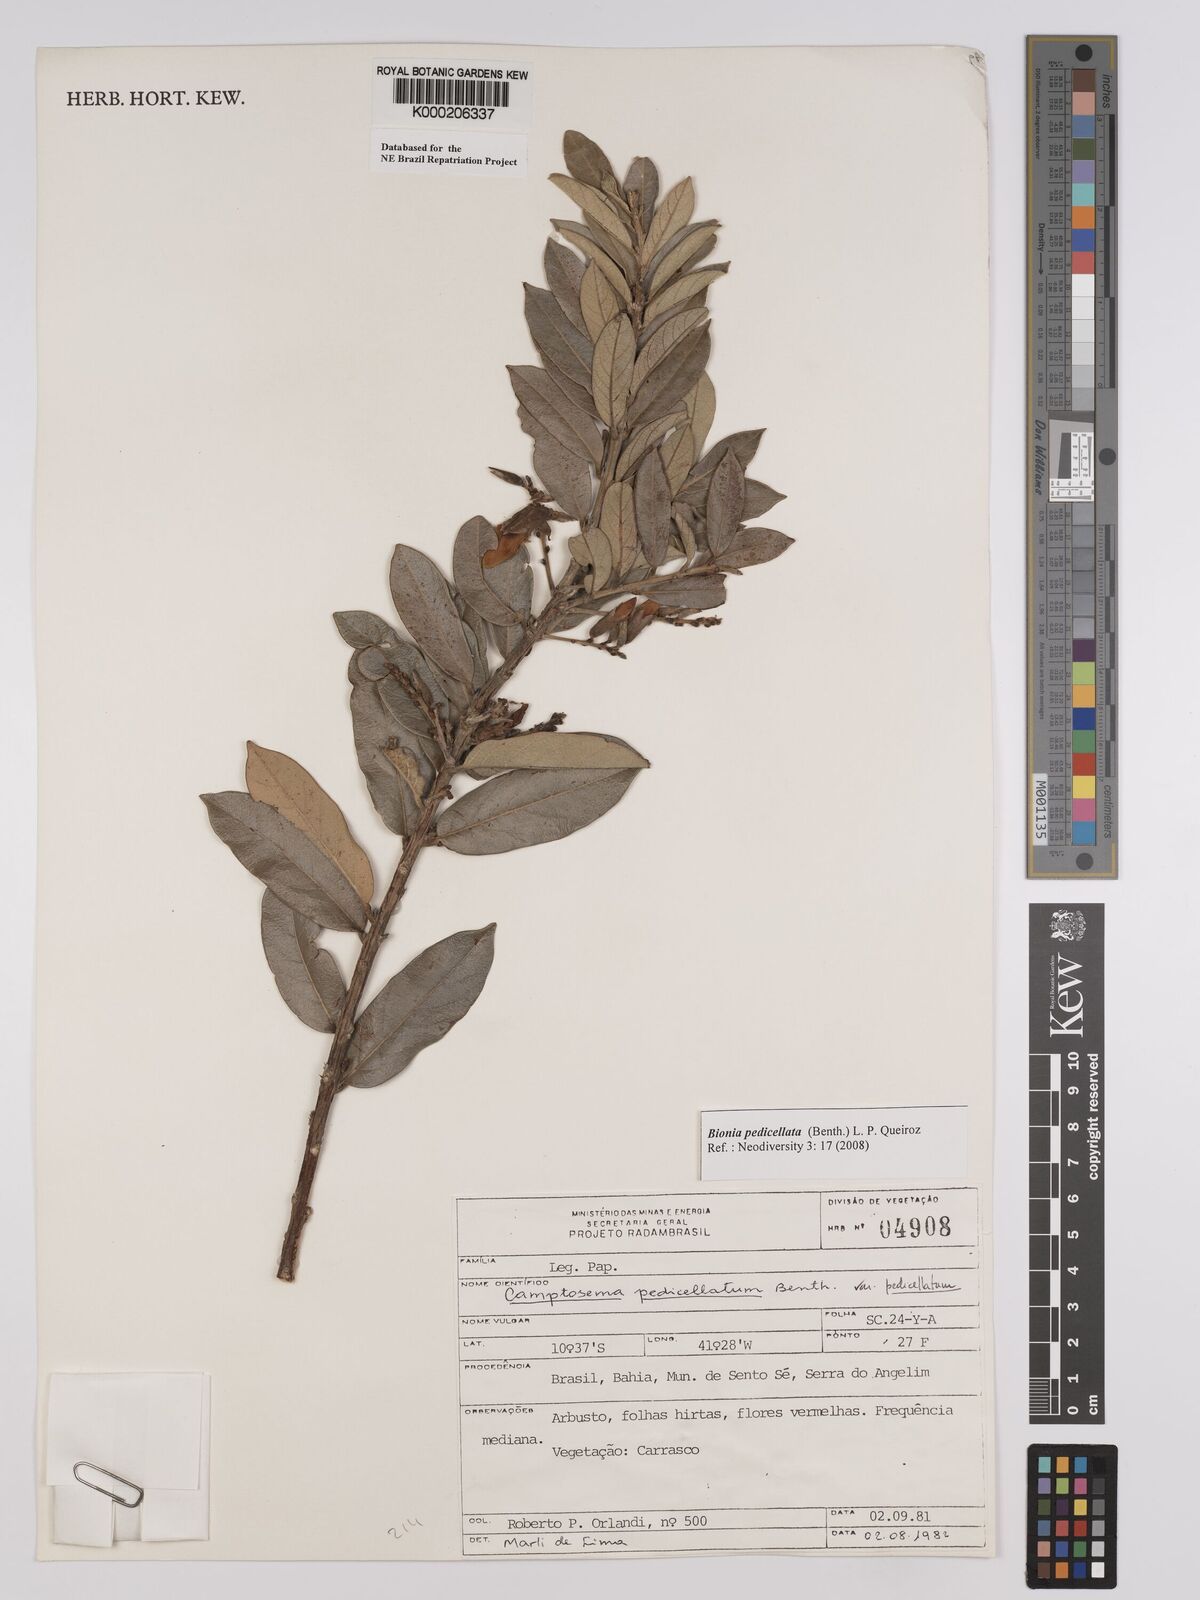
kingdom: Plantae
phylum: Tracheophyta
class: Magnoliopsida
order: Fabales
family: Fabaceae
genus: Camptosema
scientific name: Camptosema pedicellatum
